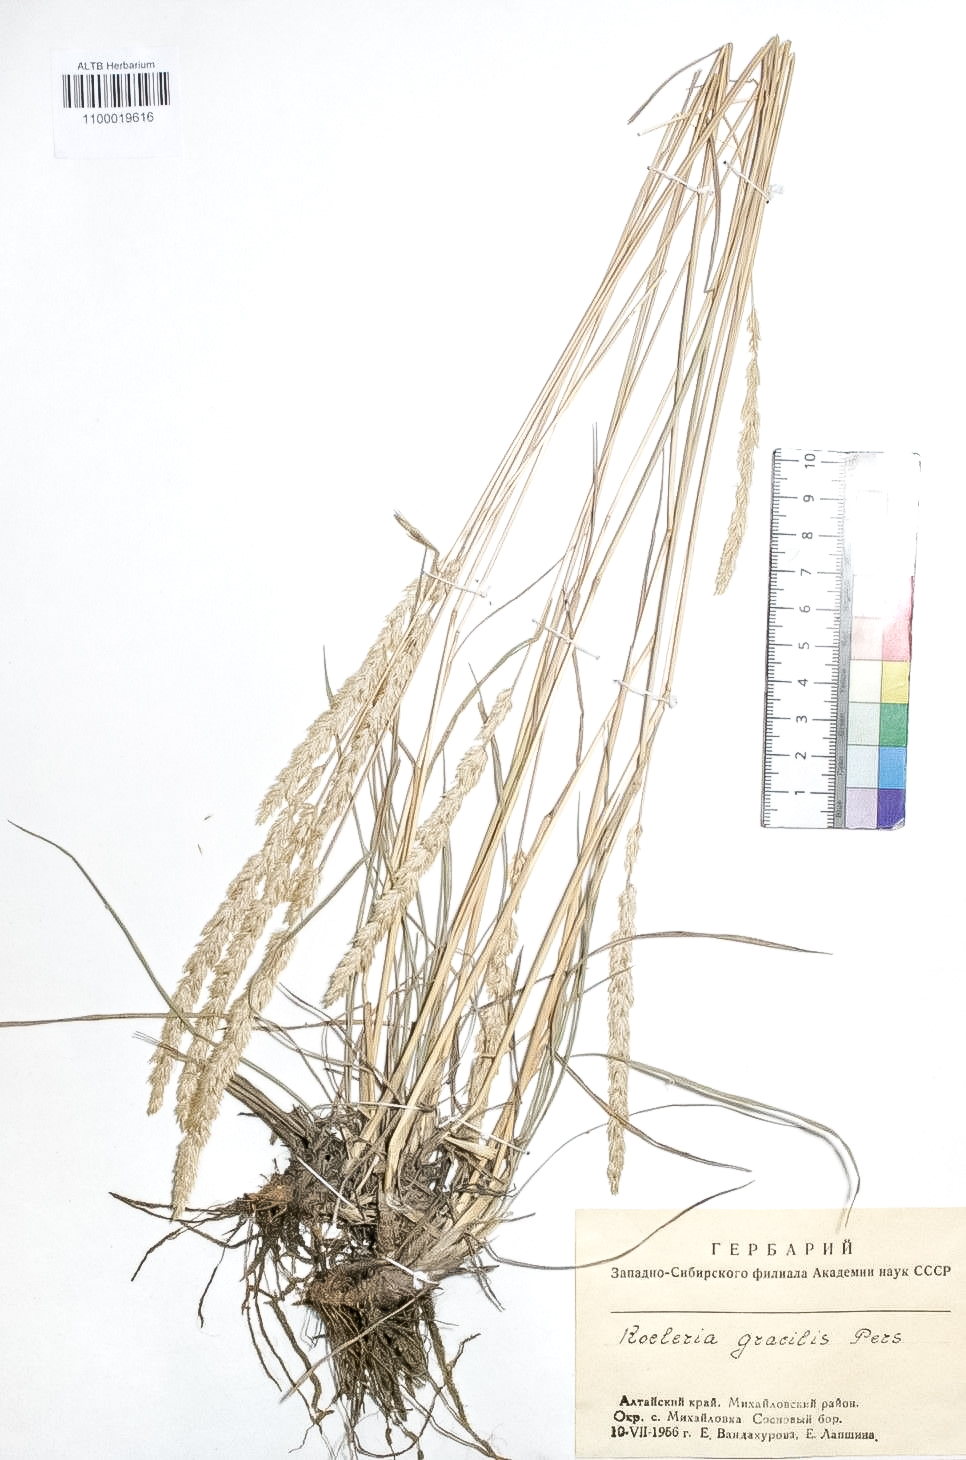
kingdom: Plantae
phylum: Tracheophyta
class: Liliopsida
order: Poales
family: Poaceae
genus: Koeleria
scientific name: Koeleria macrantha
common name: Crested hair-grass
